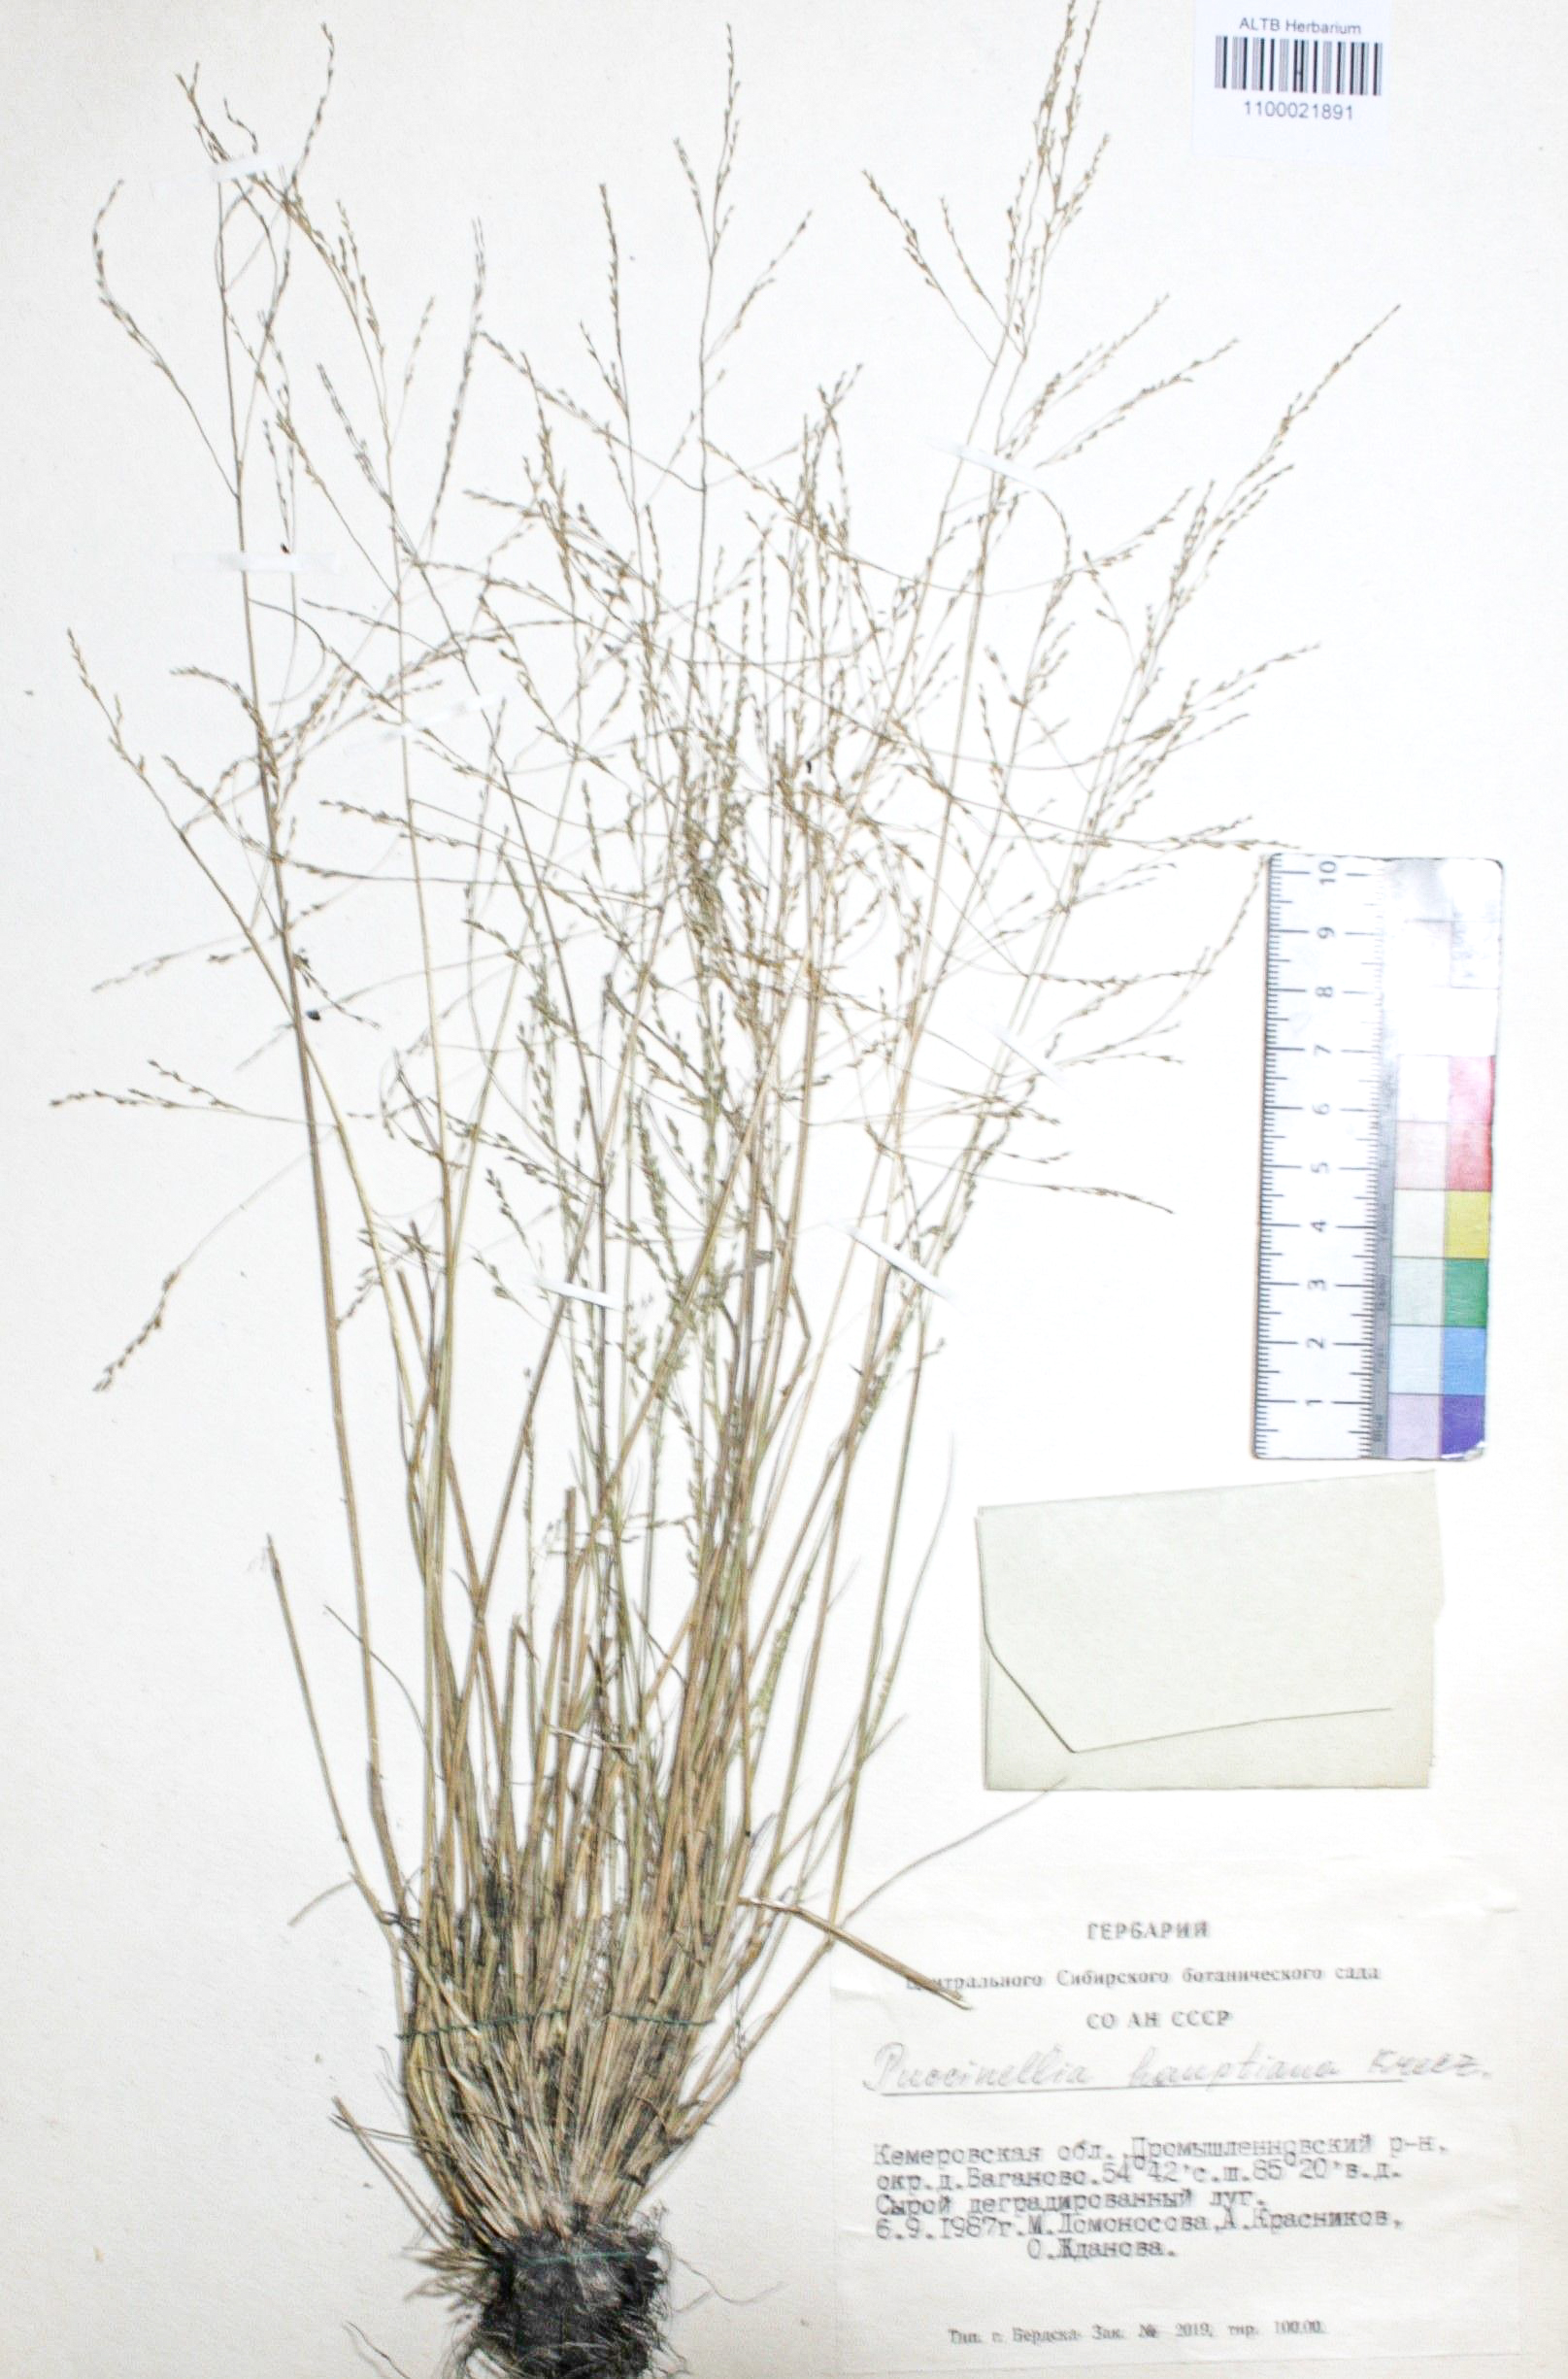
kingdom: Plantae
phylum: Tracheophyta
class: Liliopsida
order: Poales
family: Poaceae
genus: Puccinellia
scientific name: Puccinellia hauptiana
